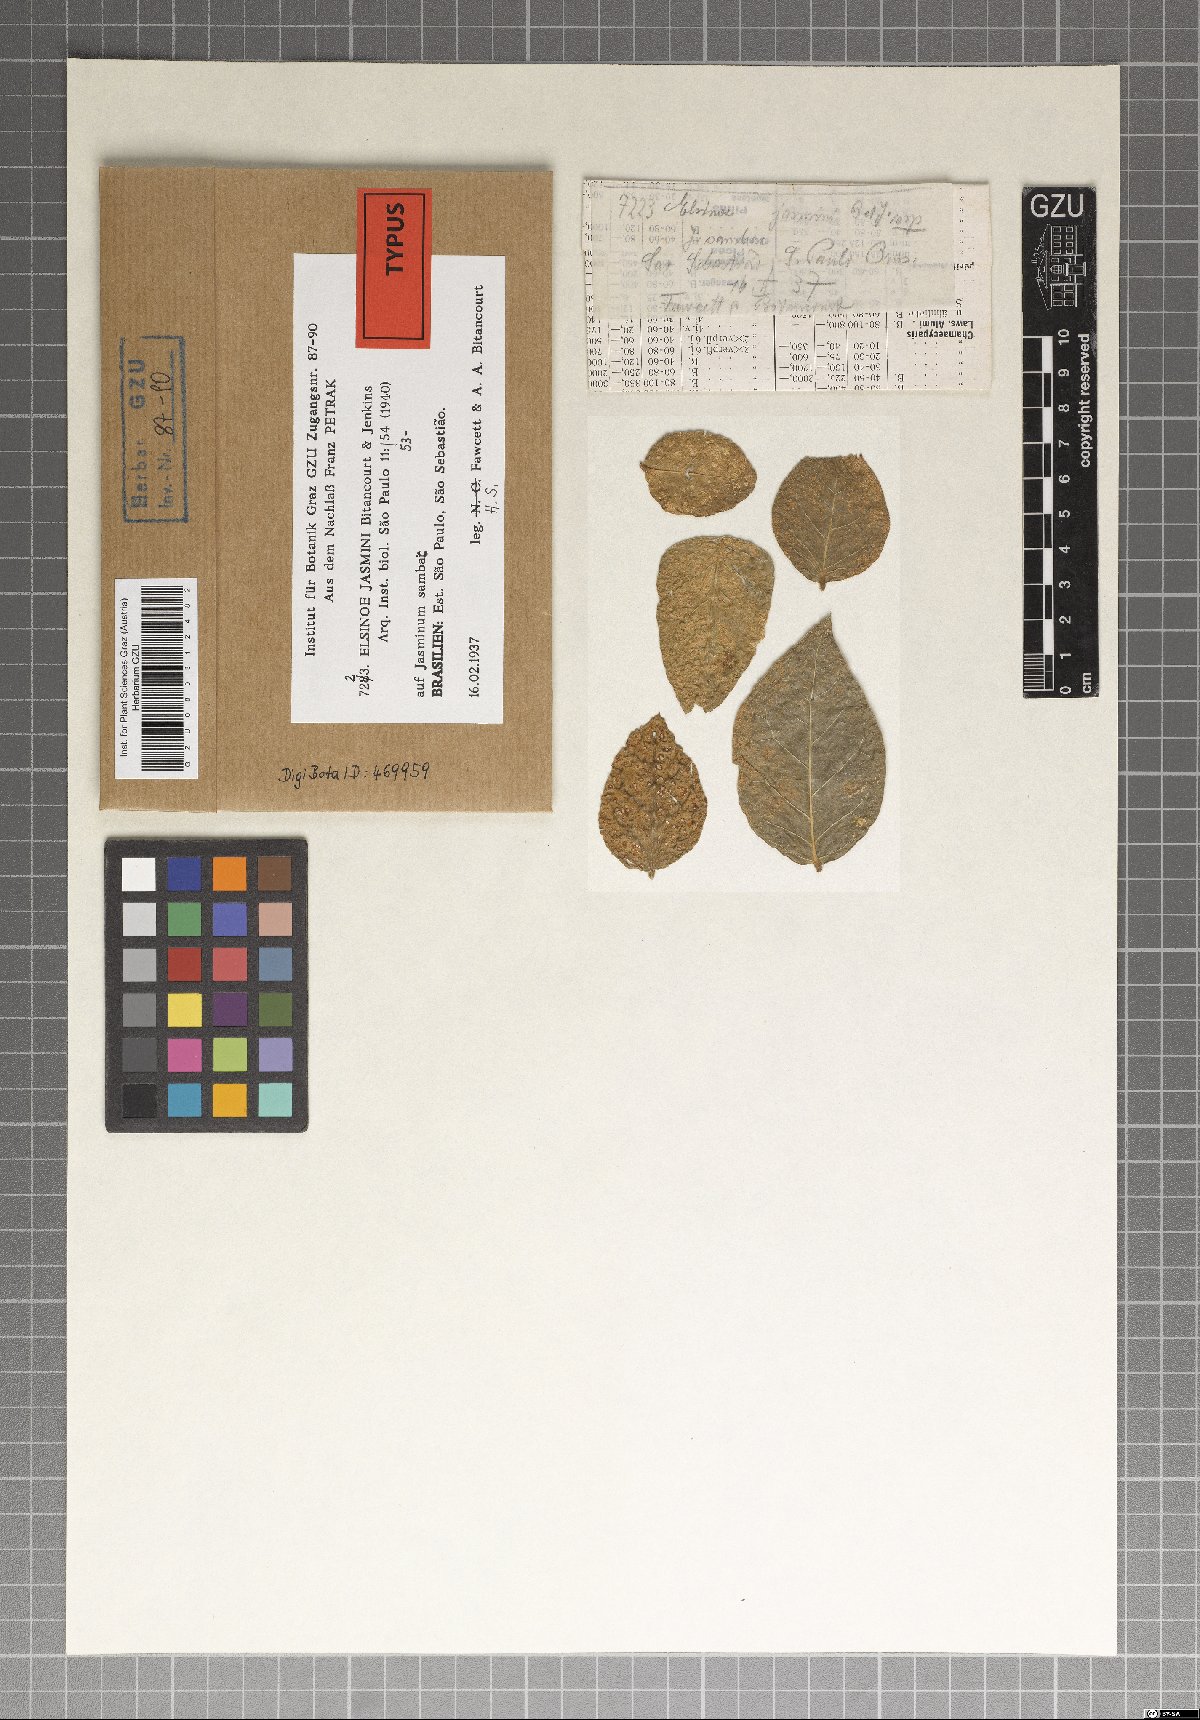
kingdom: Fungi
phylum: Ascomycota
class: Dothideomycetes
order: Myriangiales
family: Elsinoaceae
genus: Elsinoe
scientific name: Elsinoe jasmini
